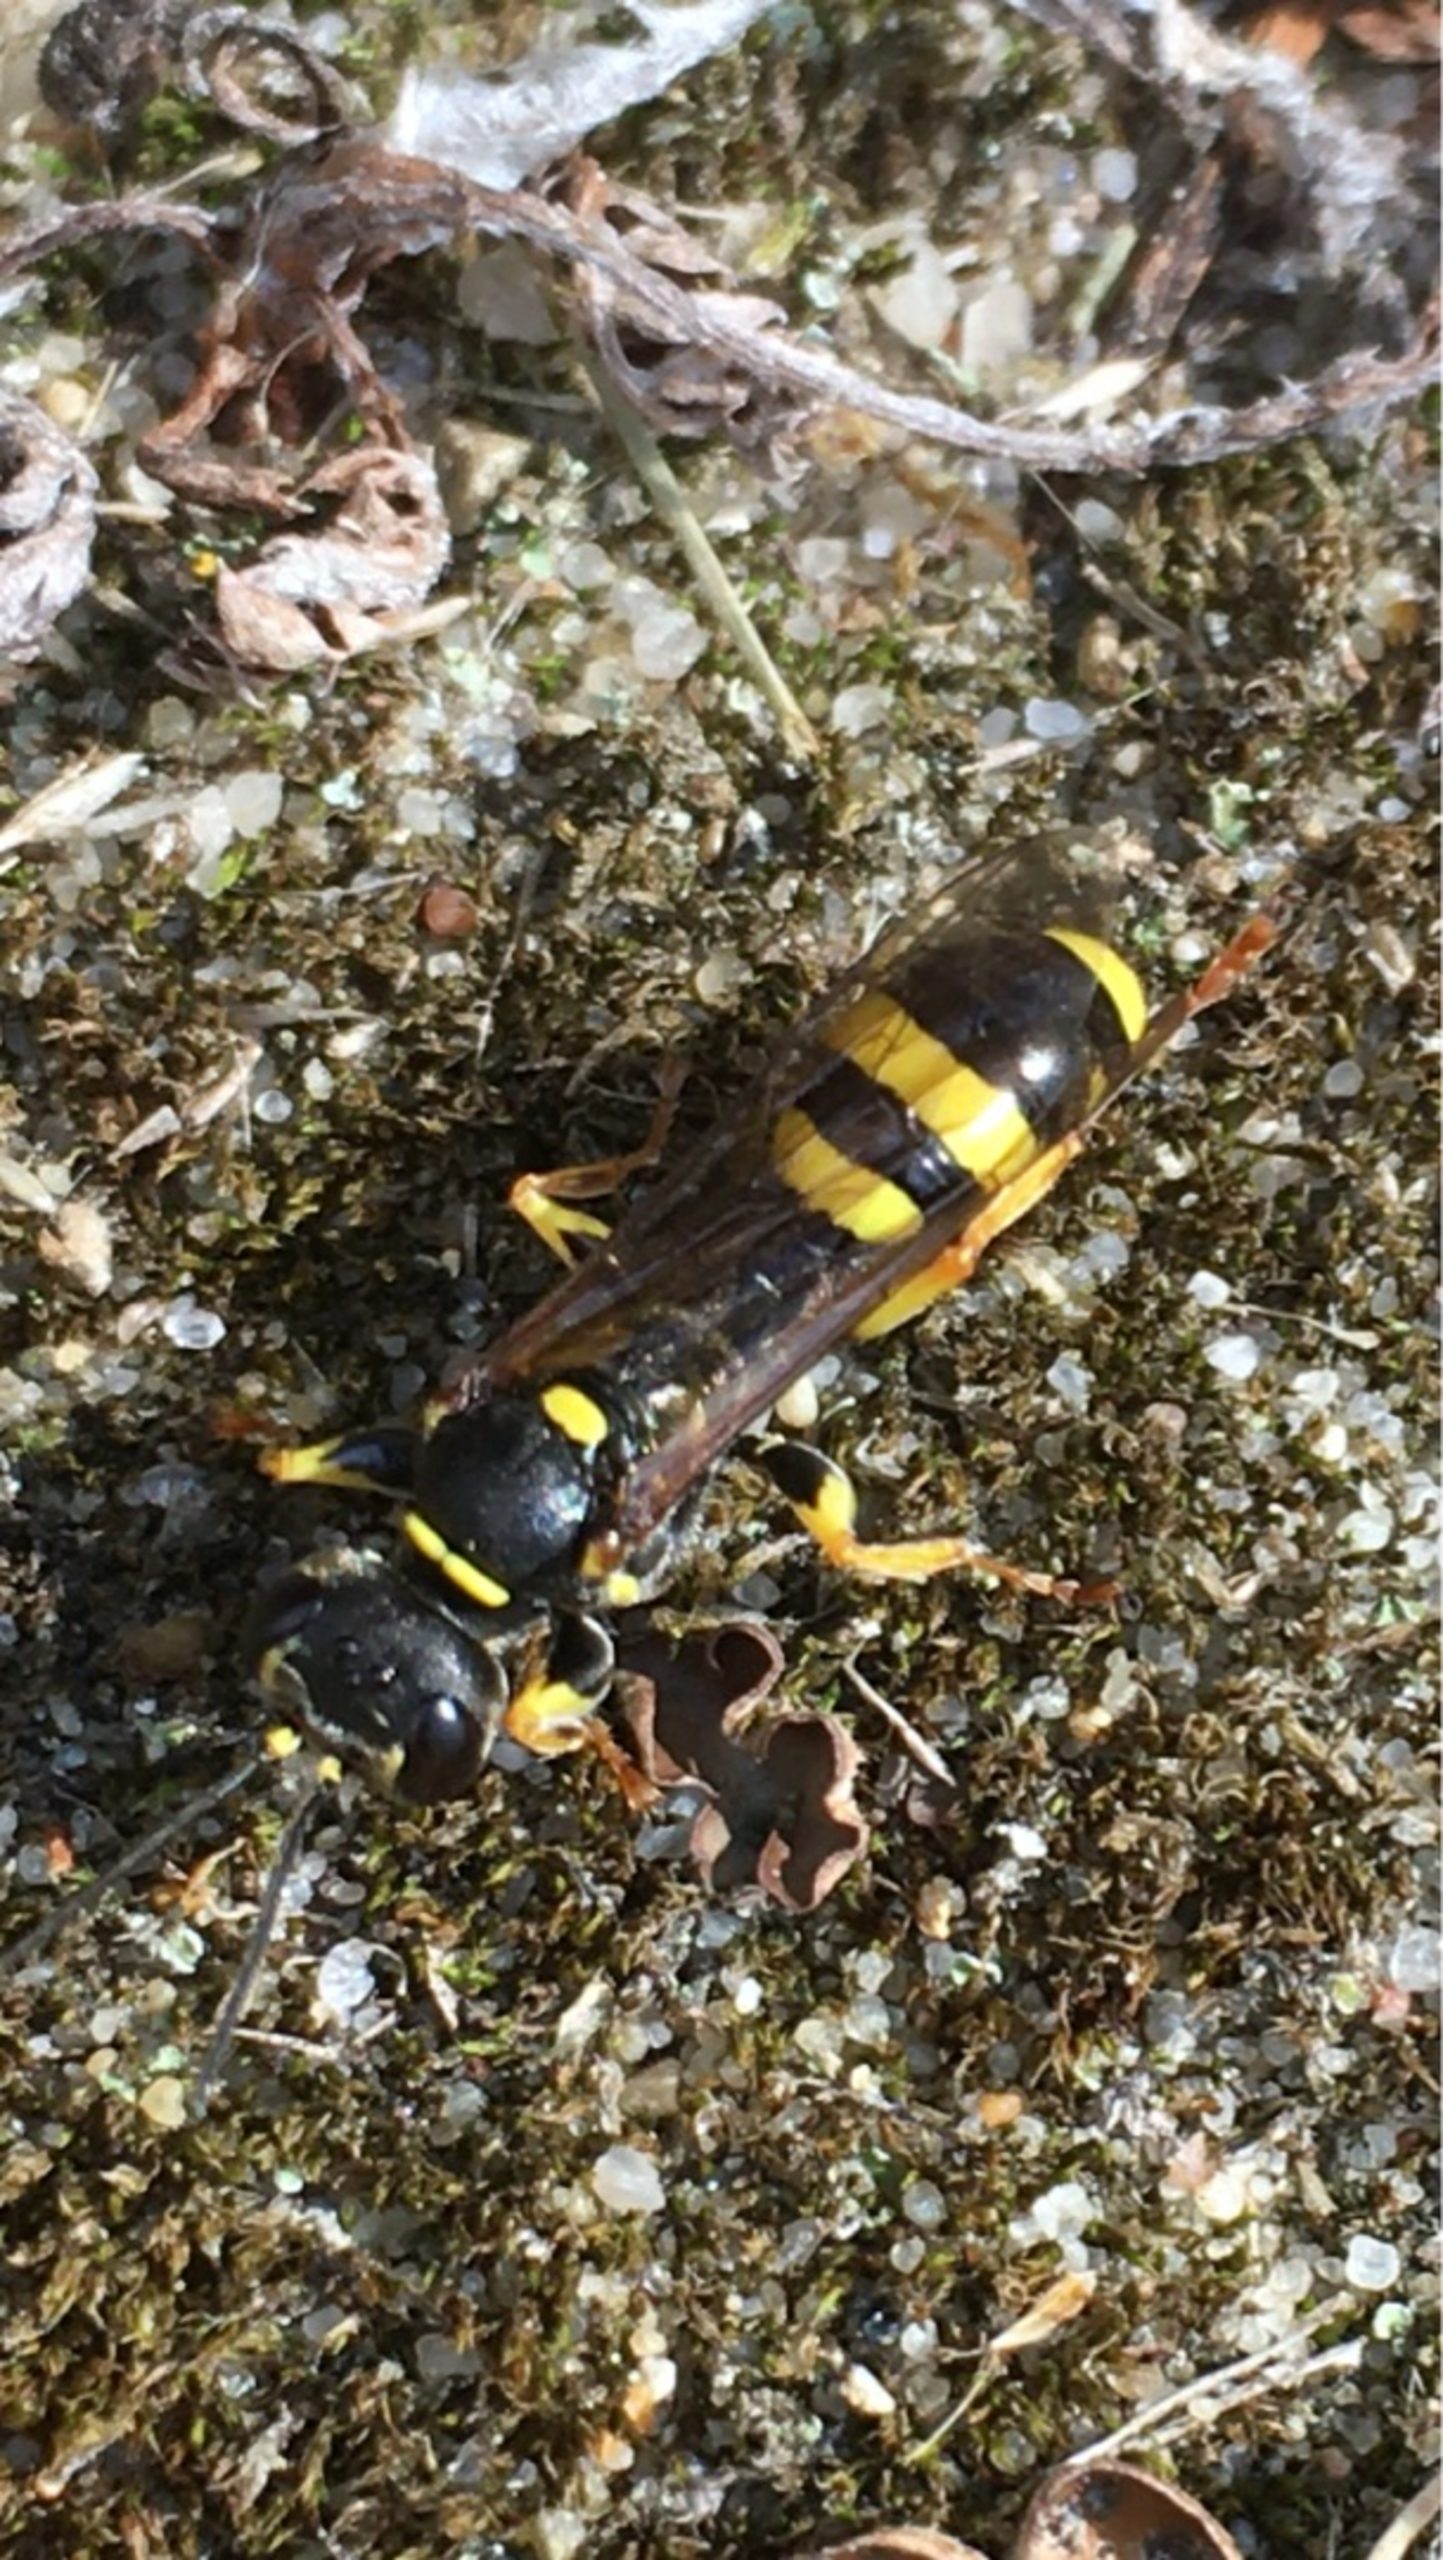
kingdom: Animalia
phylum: Arthropoda
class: Insecta
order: Hymenoptera
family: Crabronidae
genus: Mellinus
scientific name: Mellinus arvensis
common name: Efterårsgravehveps
